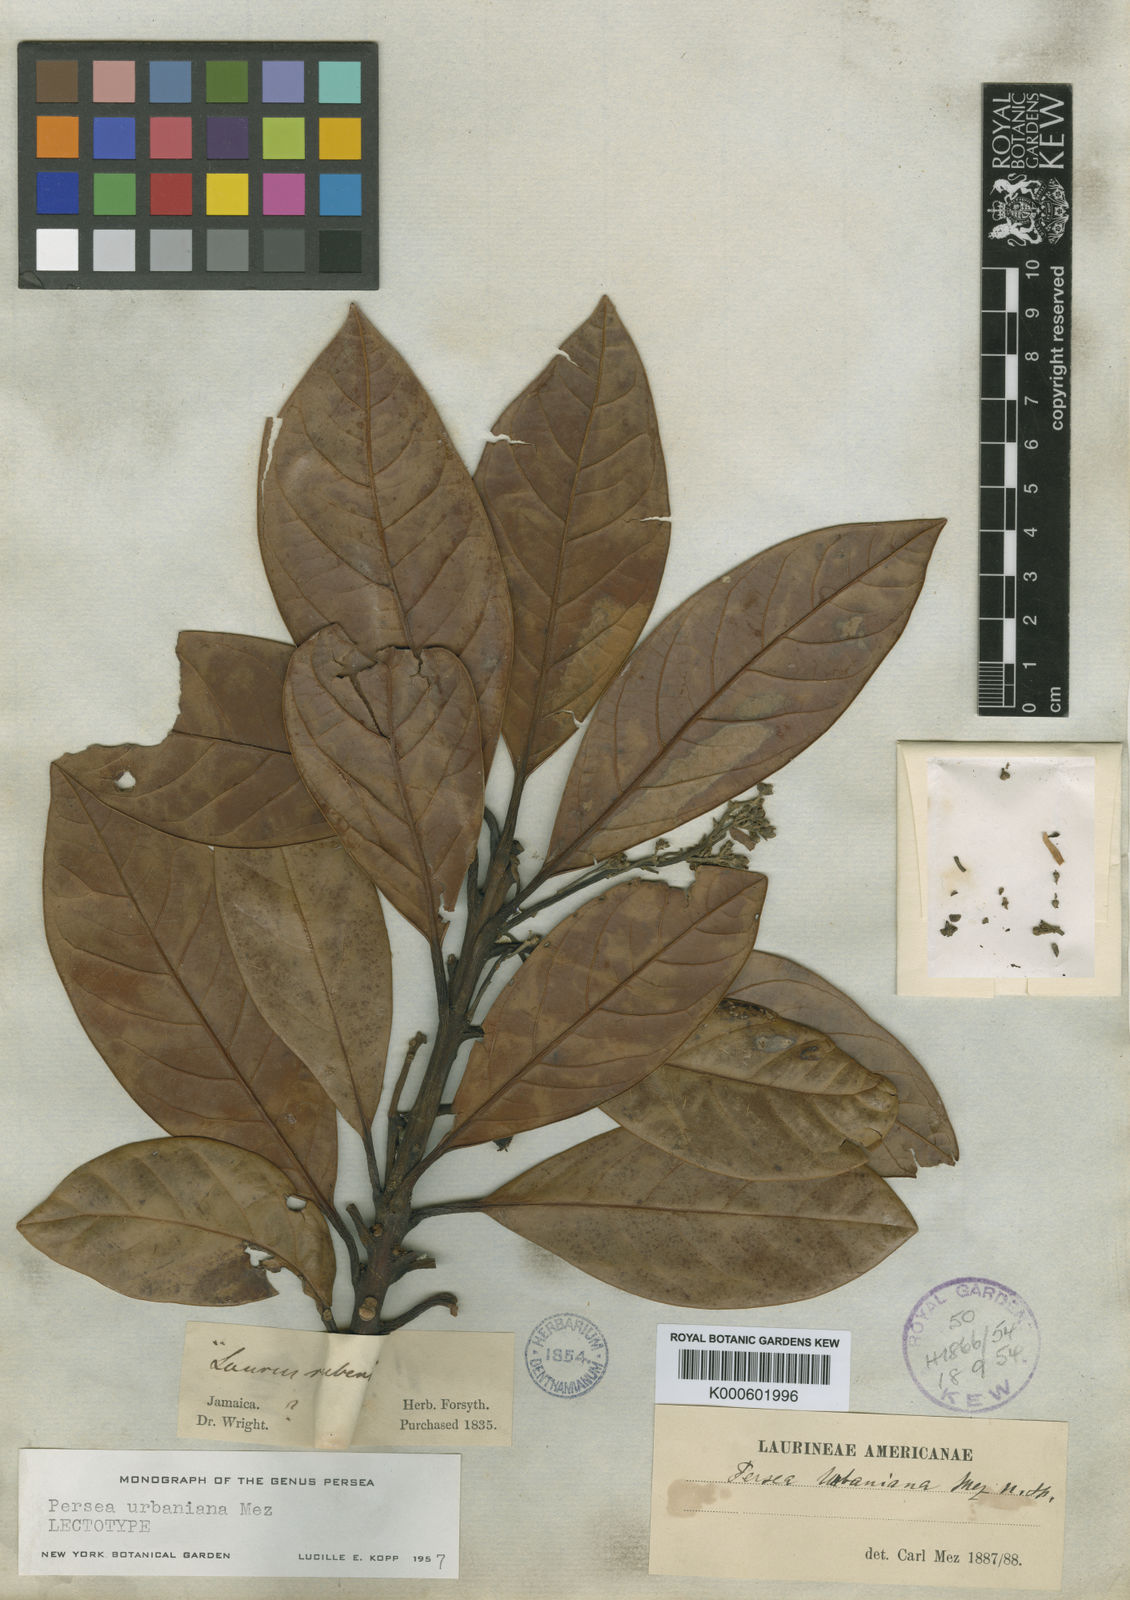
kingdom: Plantae
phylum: Tracheophyta
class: Magnoliopsida
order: Laurales
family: Lauraceae
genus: Persea
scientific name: Persea urbaniana
